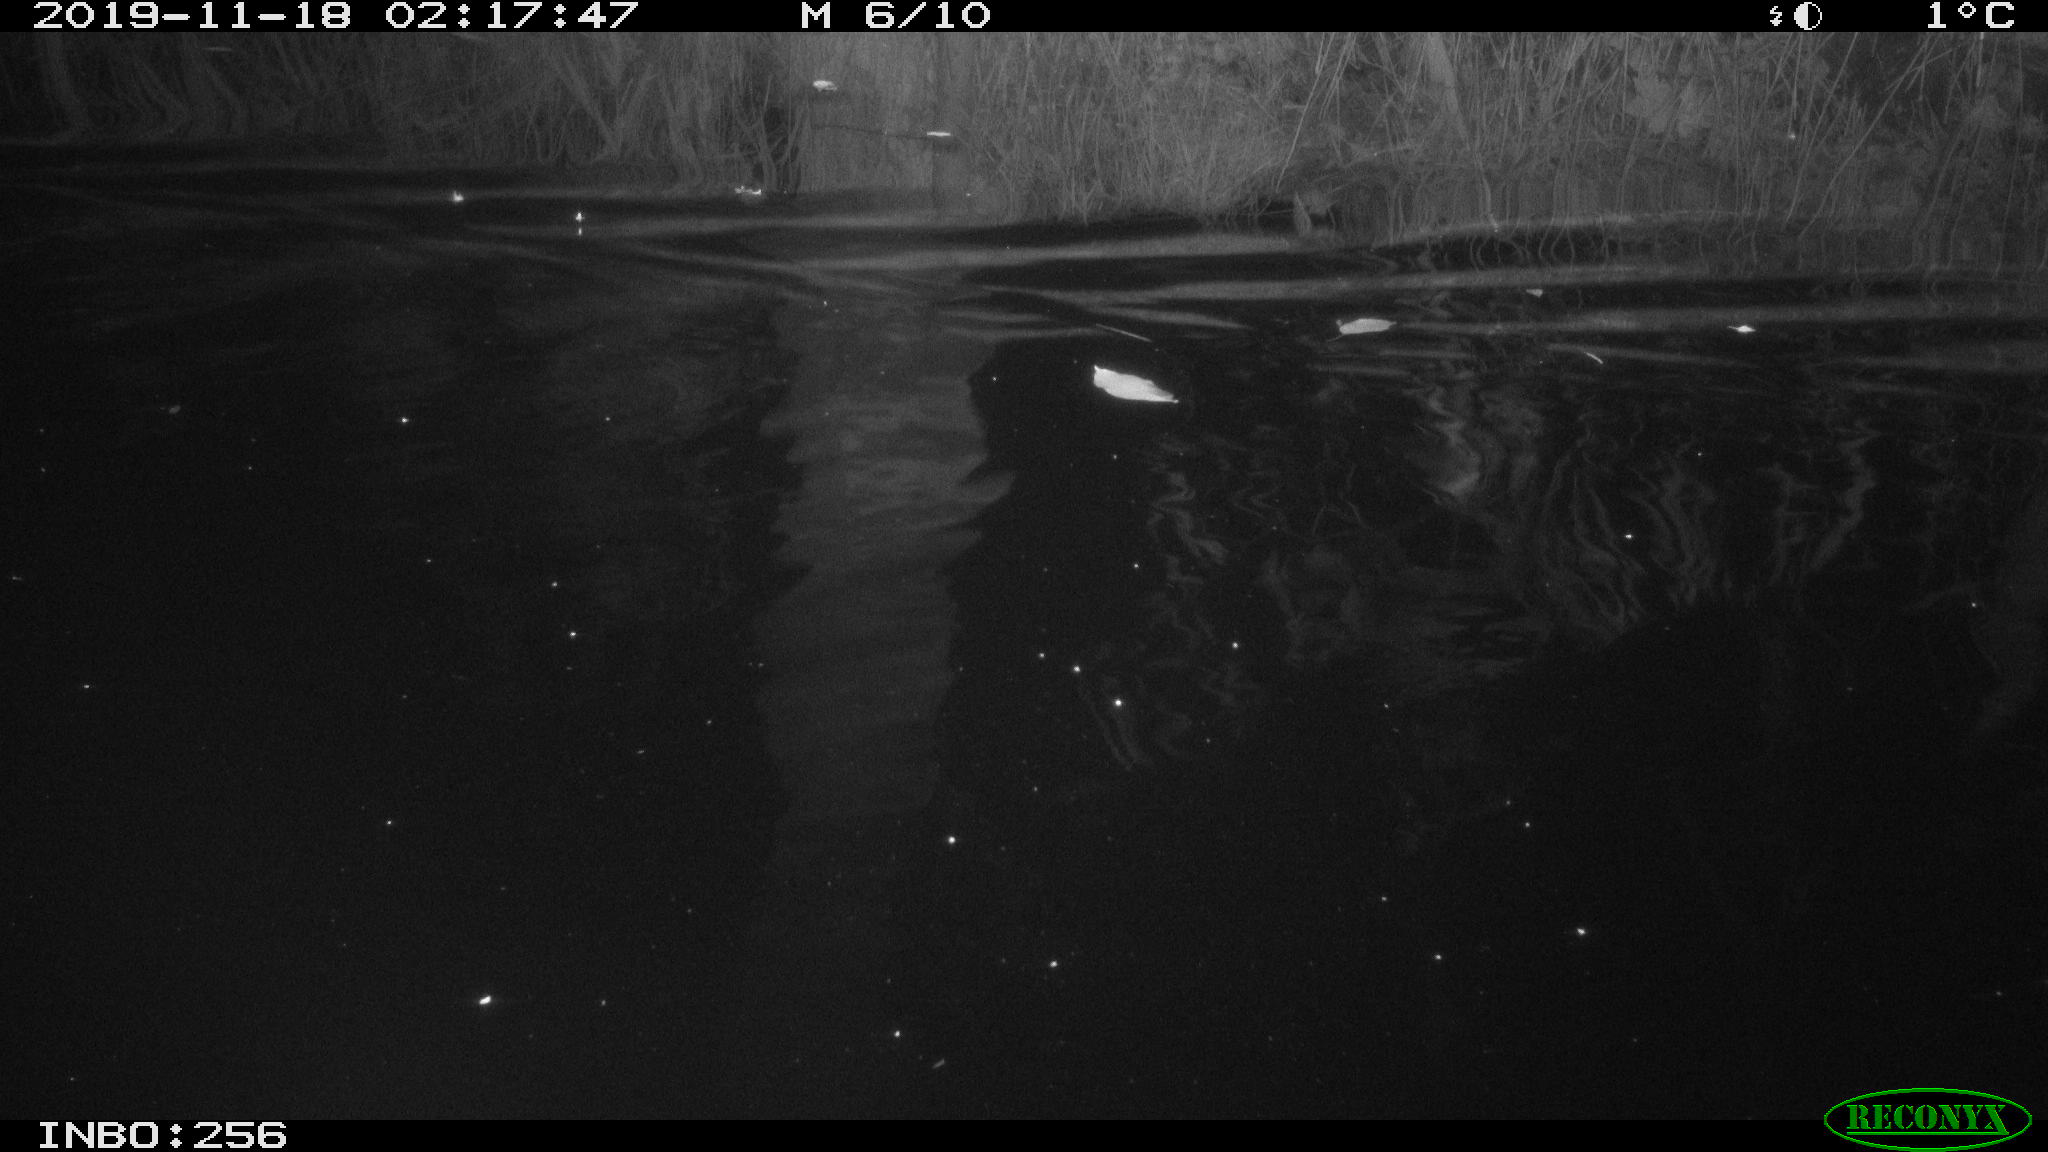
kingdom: Animalia
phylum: Chordata
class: Mammalia
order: Rodentia
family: Cricetidae
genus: Ondatra
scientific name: Ondatra zibethicus
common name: Muskrat
